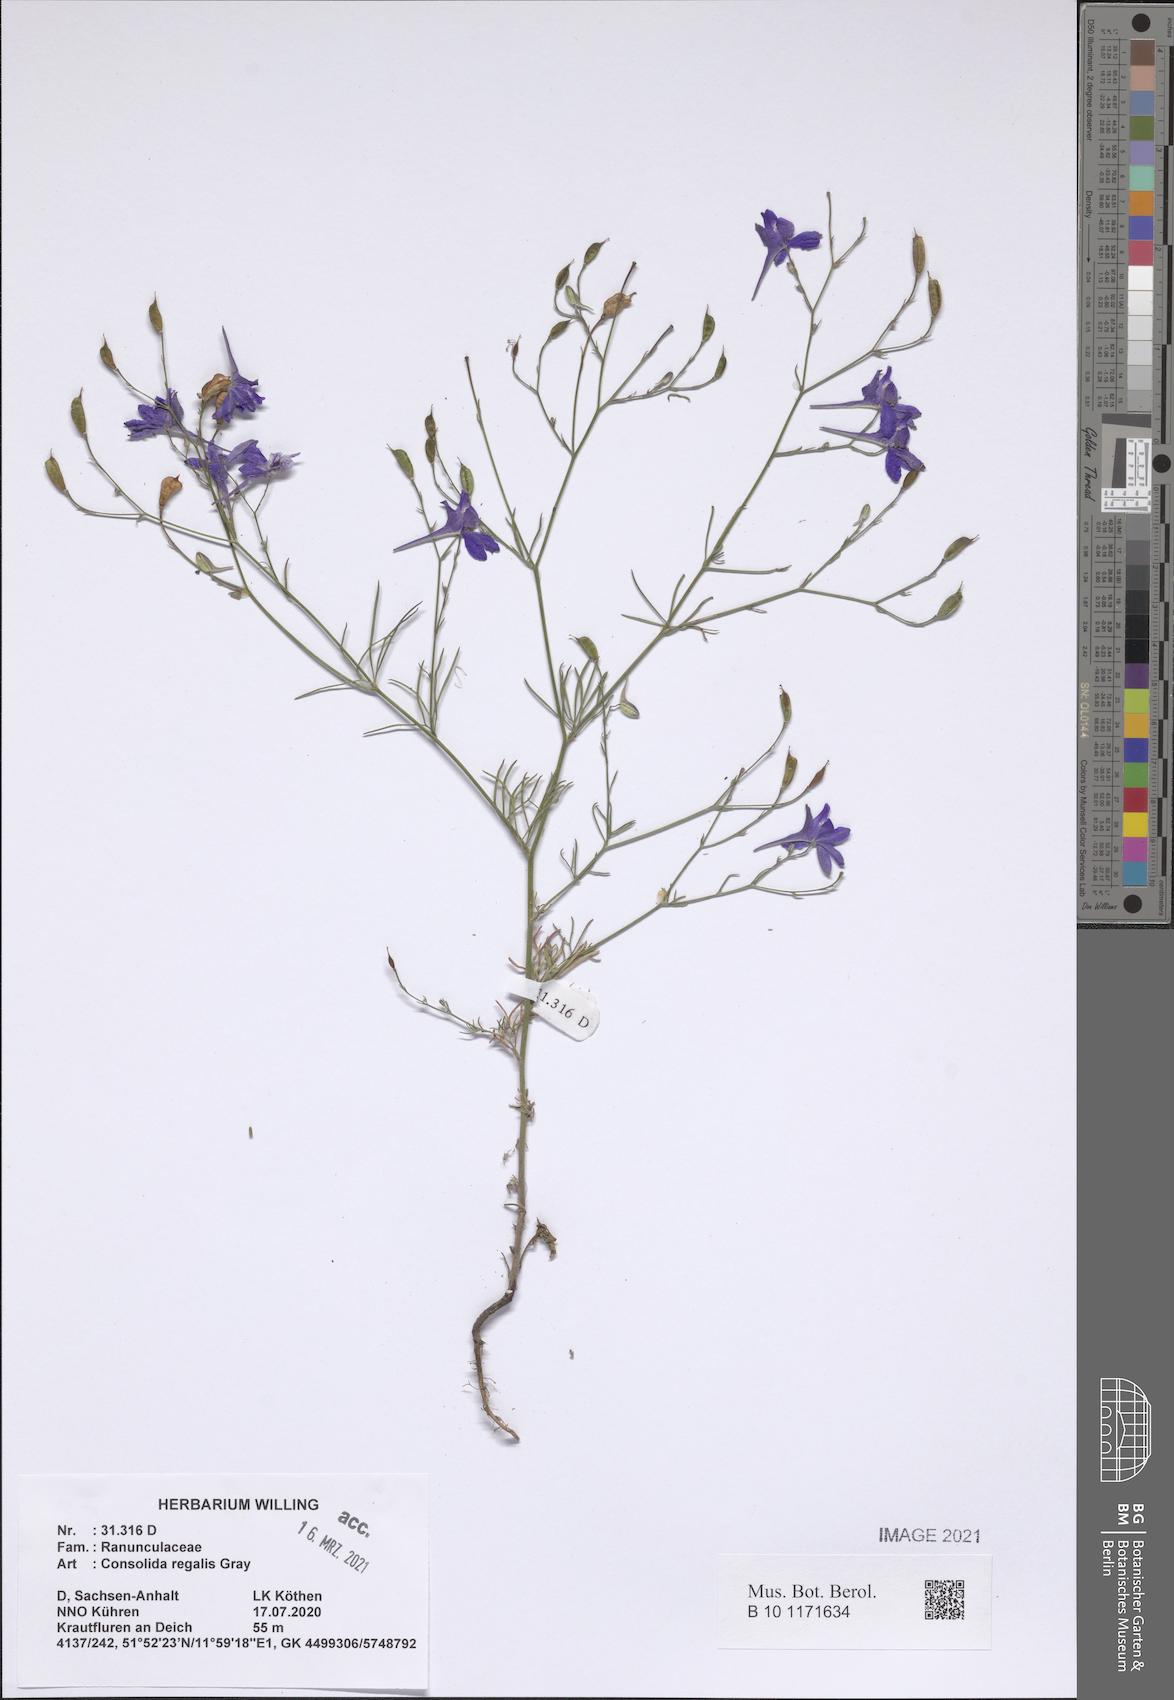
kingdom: Plantae
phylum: Tracheophyta
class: Magnoliopsida
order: Ranunculales
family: Ranunculaceae
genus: Delphinium
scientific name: Delphinium consolida
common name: Branching larkspur
